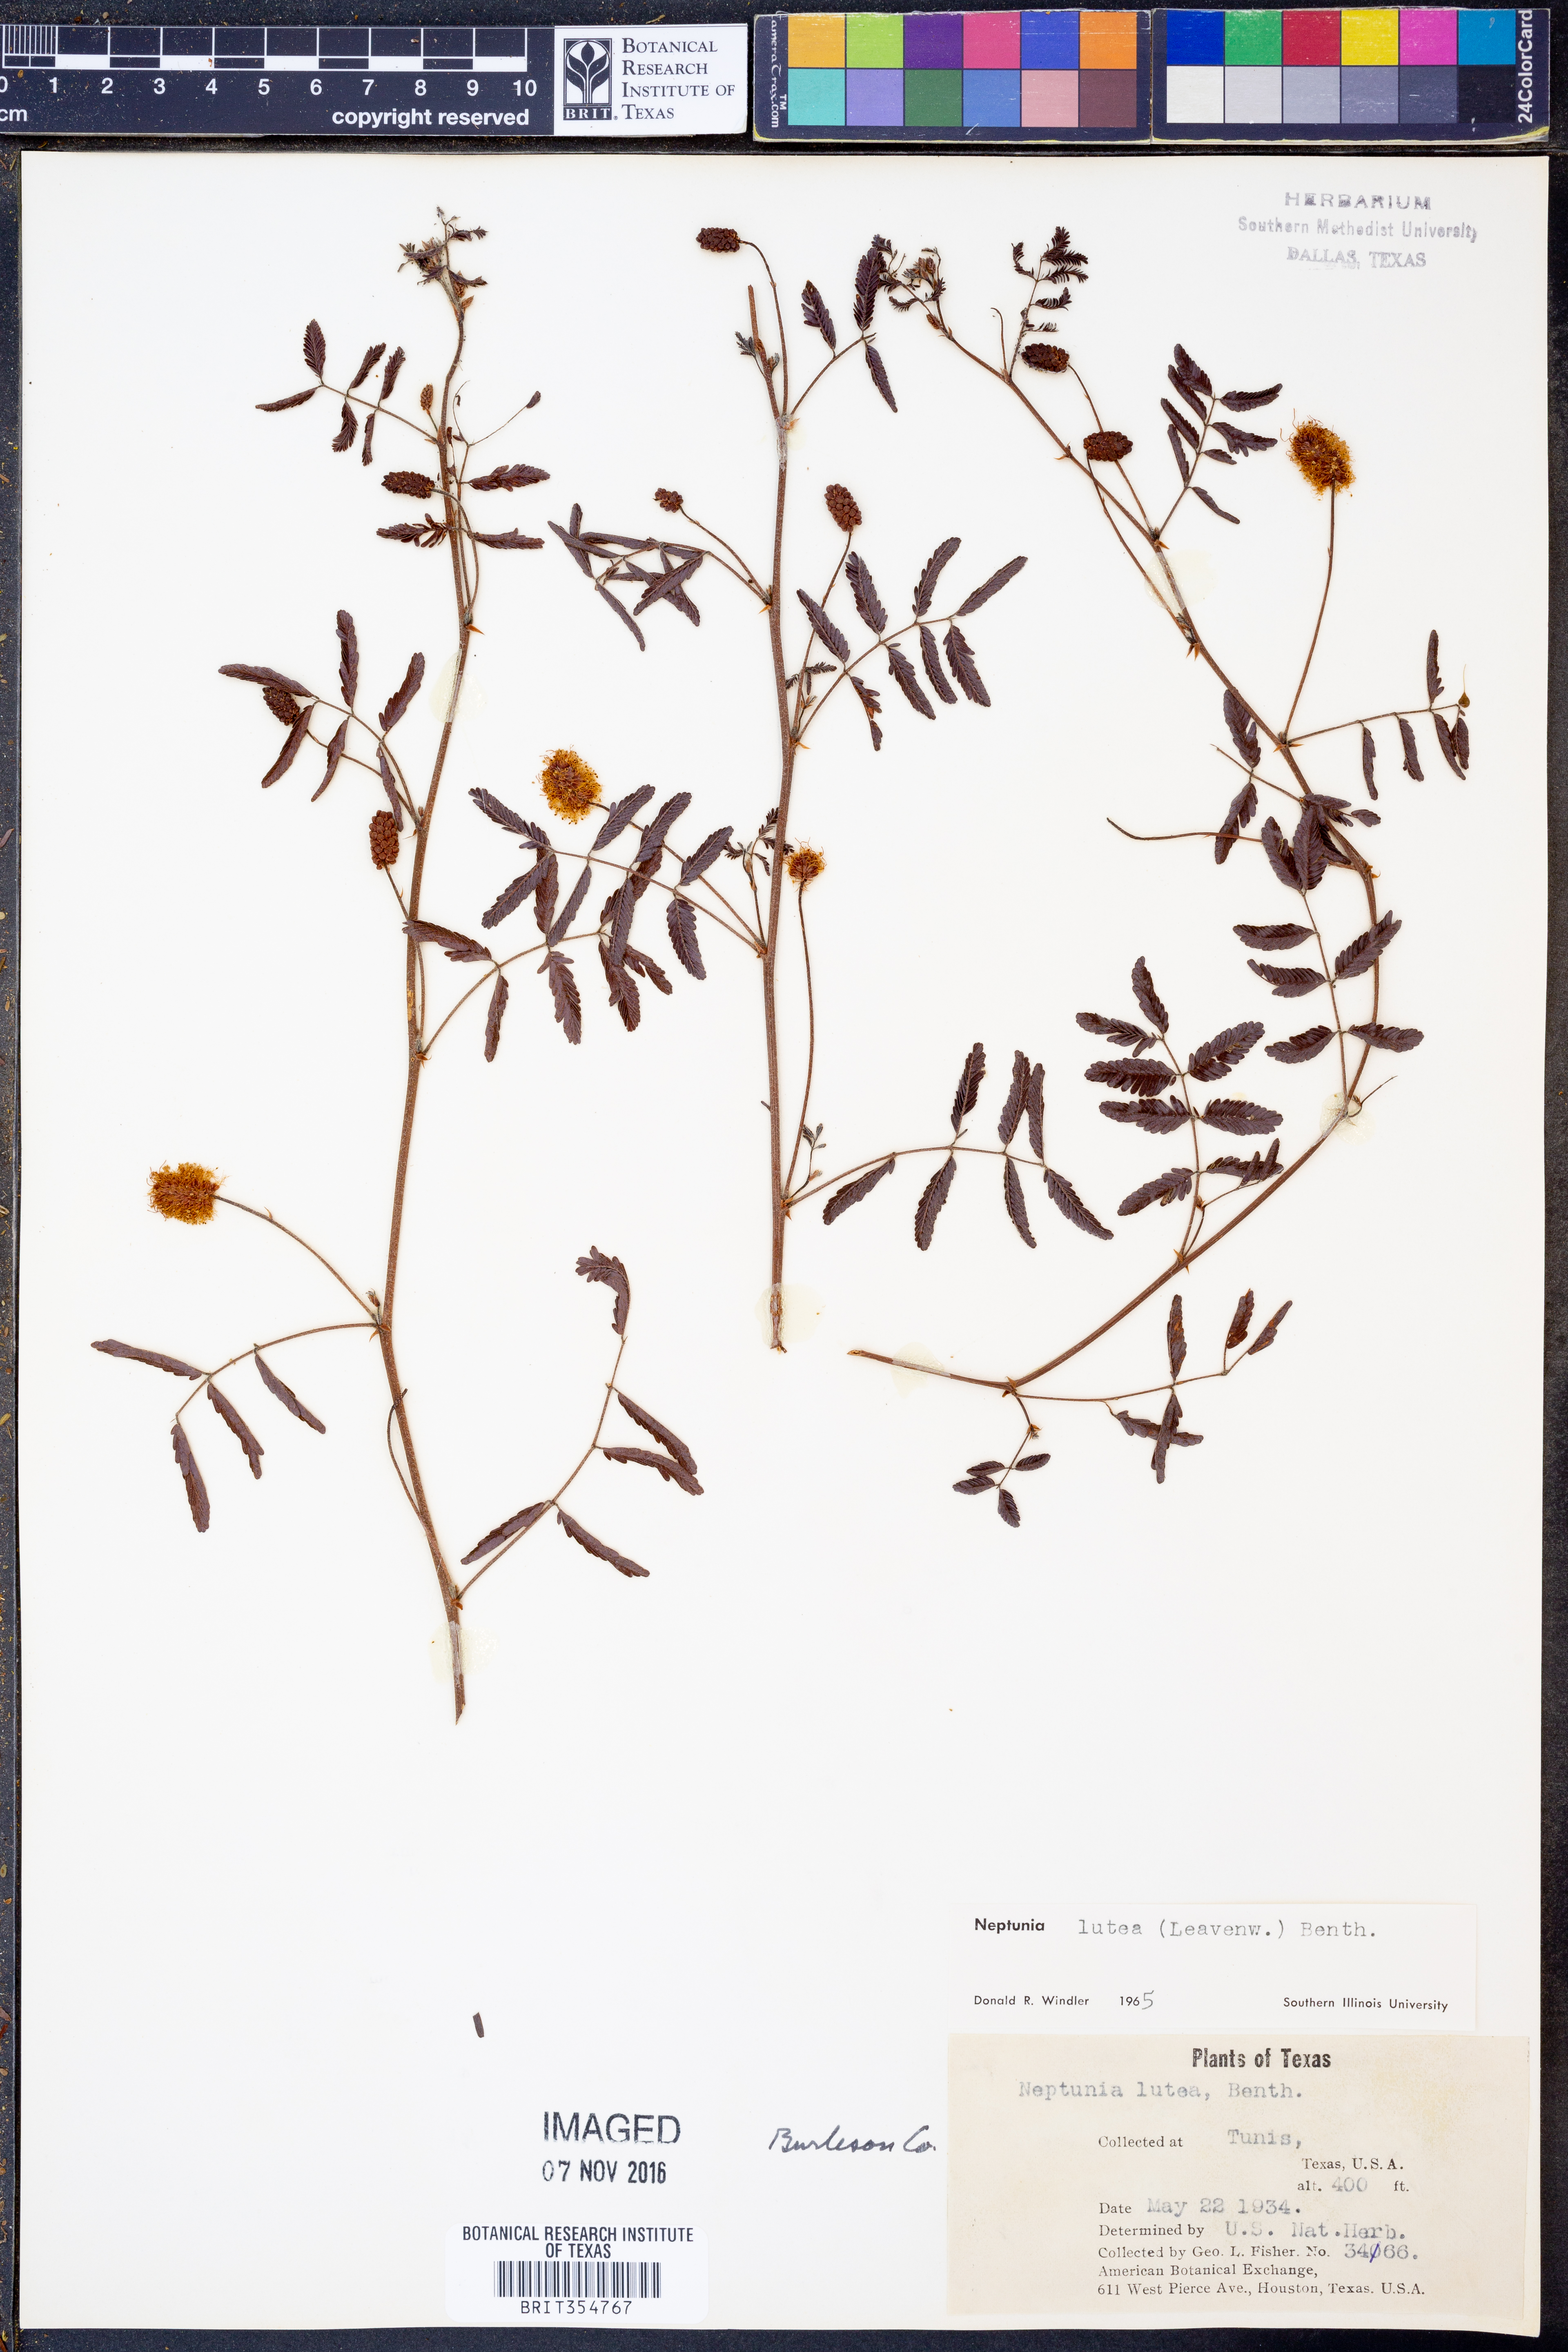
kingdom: Plantae
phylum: Tracheophyta
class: Magnoliopsida
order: Fabales
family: Fabaceae
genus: Neptunia
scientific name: Neptunia lutea
